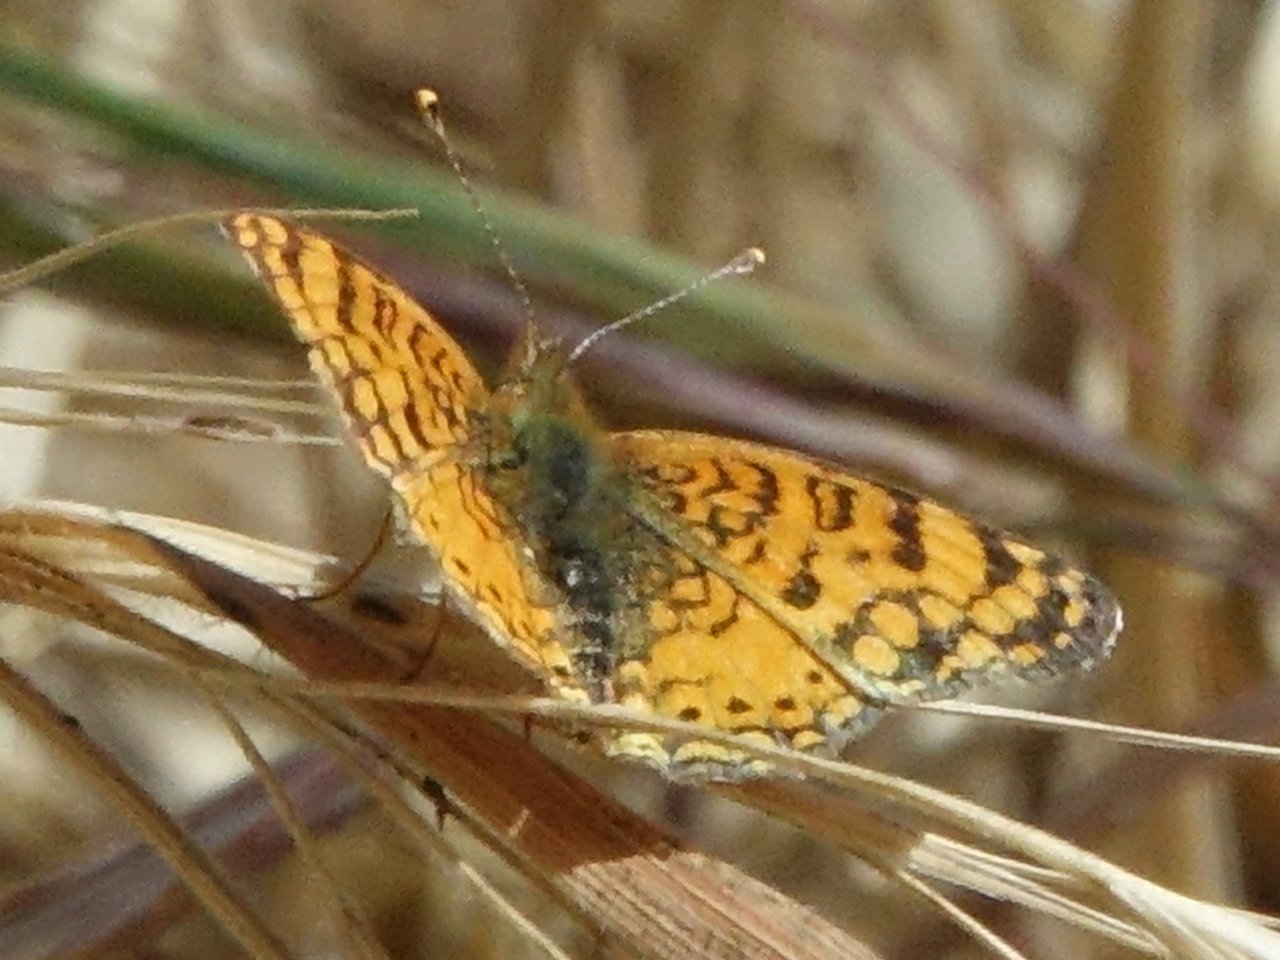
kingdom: Animalia
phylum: Arthropoda
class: Insecta
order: Lepidoptera
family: Nymphalidae
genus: Eresia
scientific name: Eresia aveyrona
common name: Mylitta Crescent
